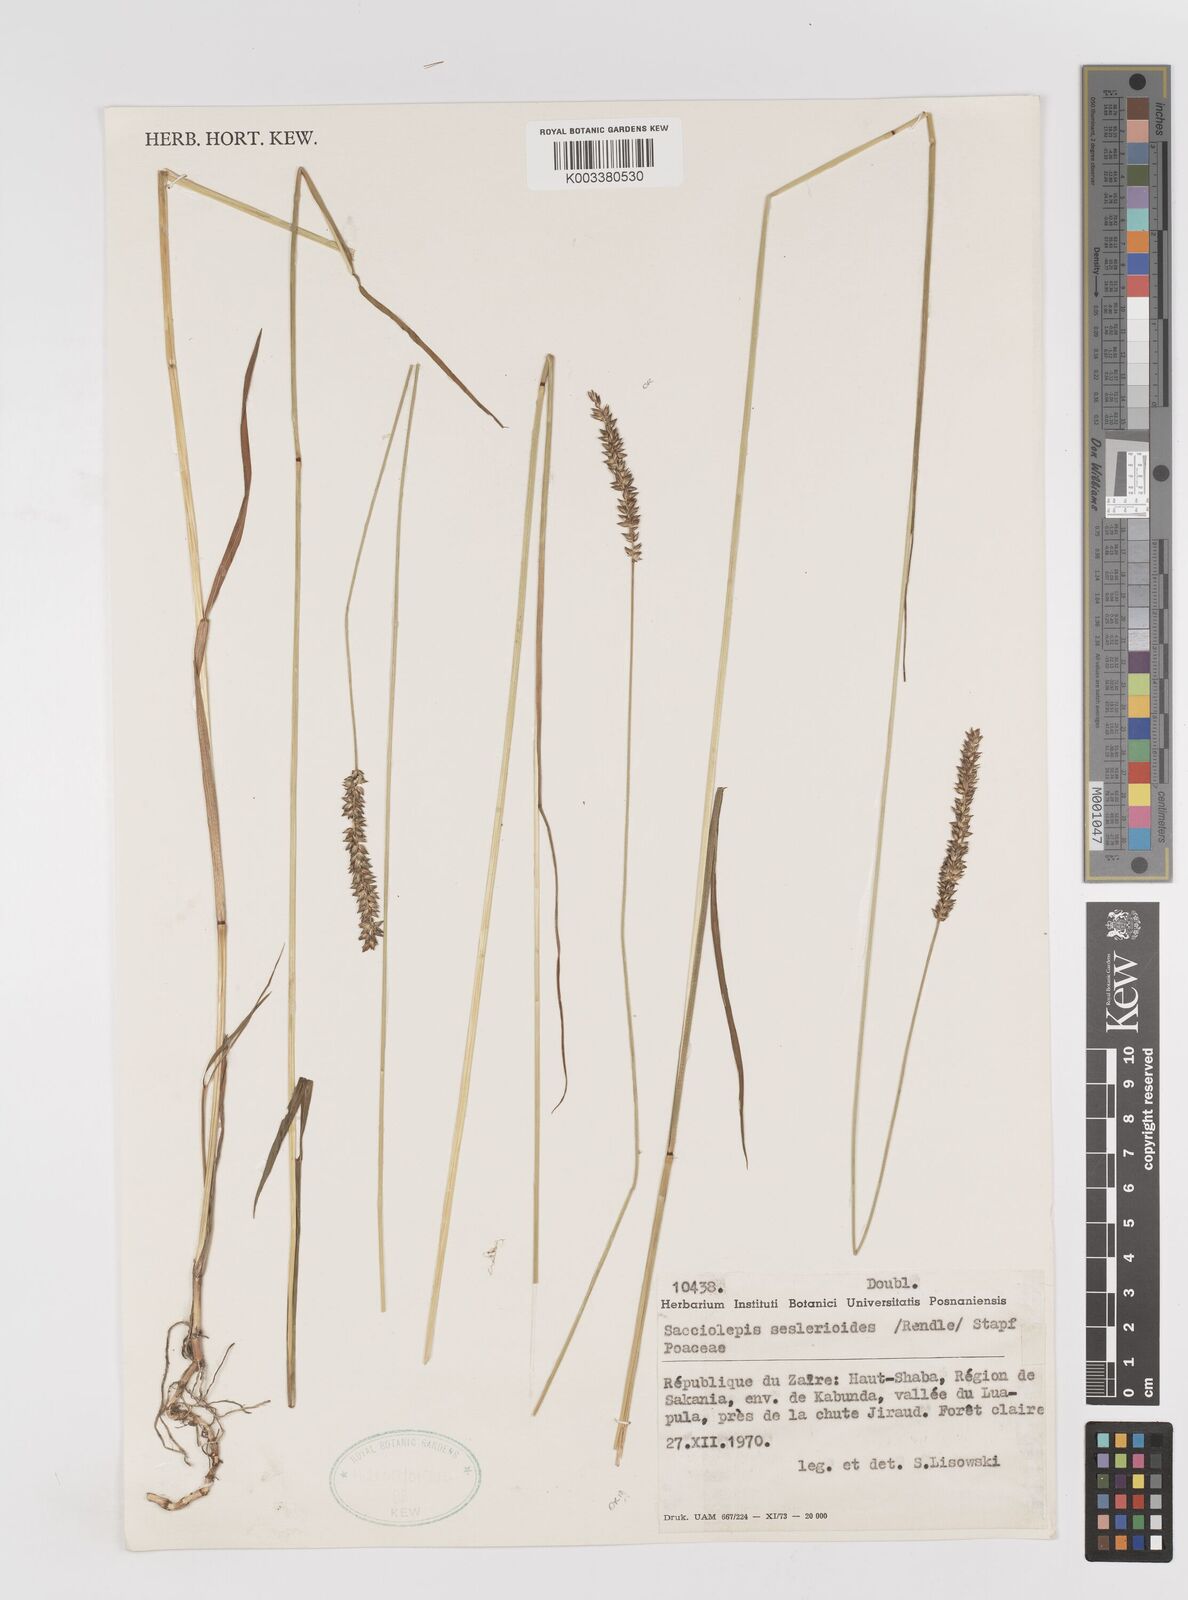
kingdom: Plantae
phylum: Tracheophyta
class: Liliopsida
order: Poales
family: Poaceae
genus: Sacciolepis
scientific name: Sacciolepis seslerioides
